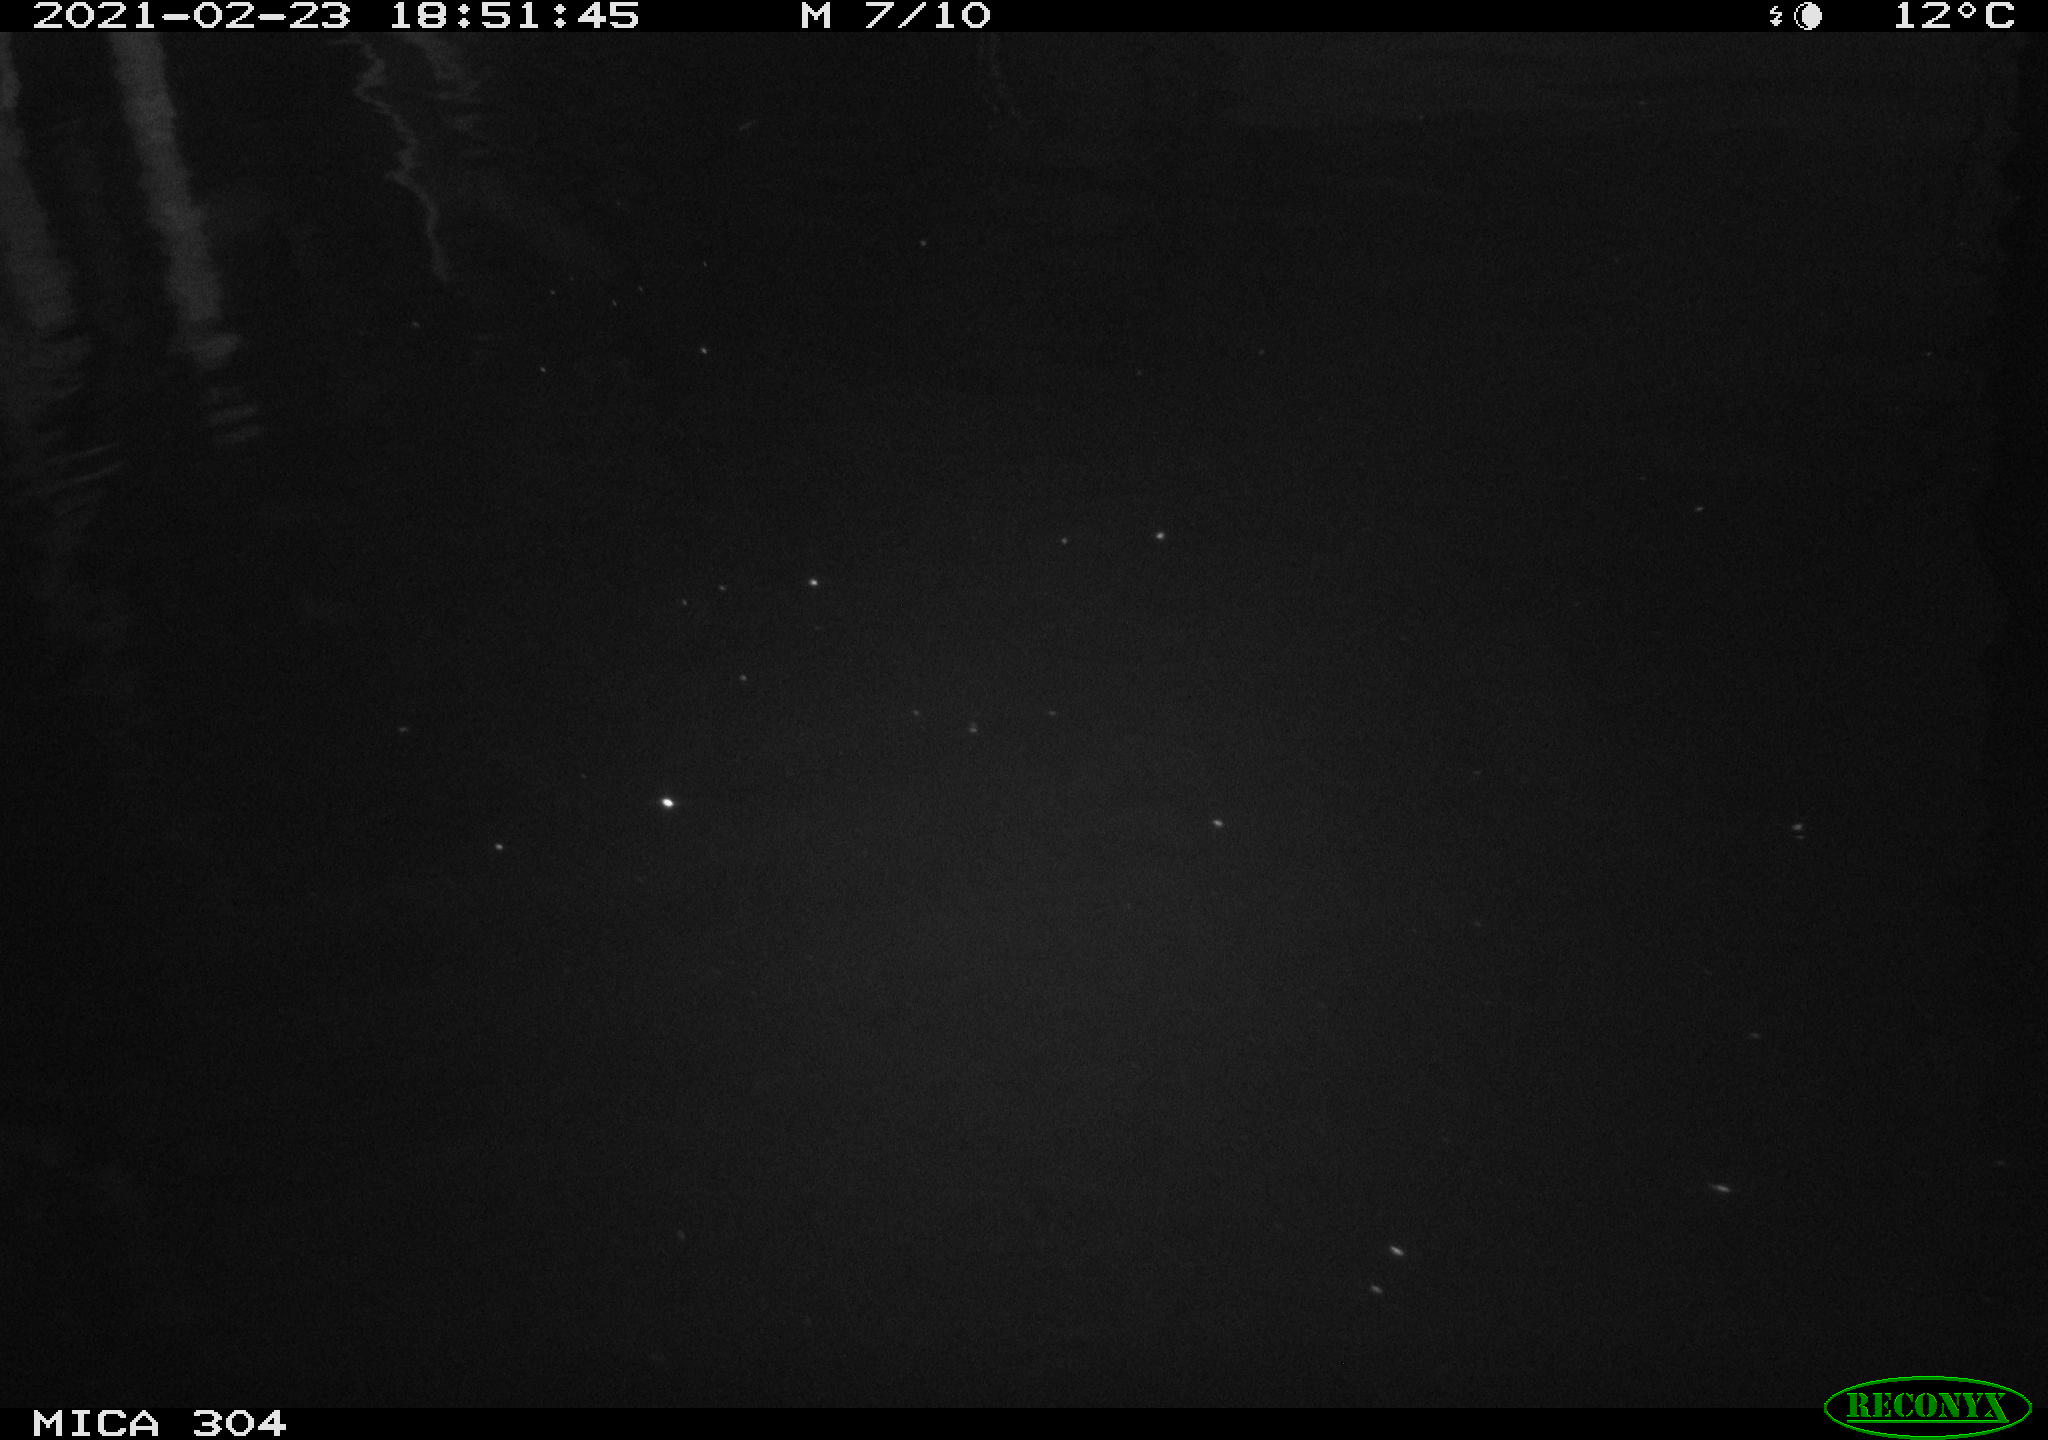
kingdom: Animalia
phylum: Chordata
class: Aves
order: Gruiformes
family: Rallidae
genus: Fulica
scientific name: Fulica atra
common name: Eurasian coot
